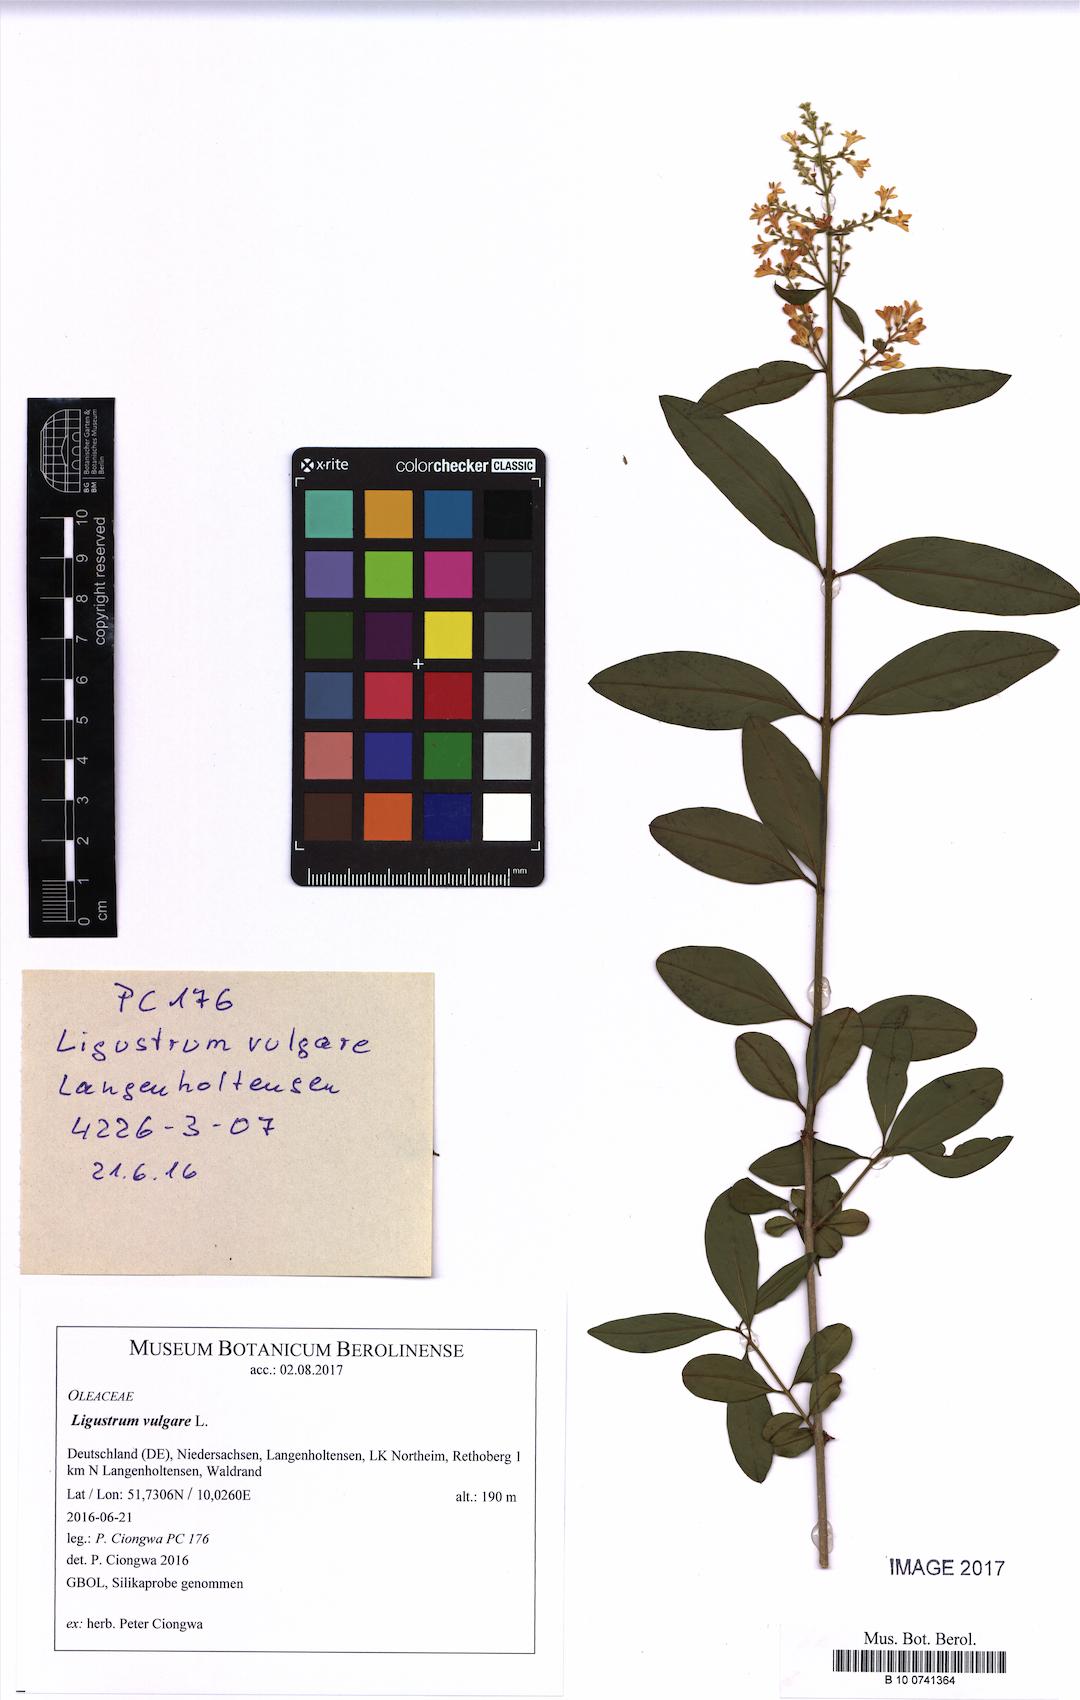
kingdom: Plantae
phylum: Tracheophyta
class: Magnoliopsida
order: Lamiales
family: Oleaceae
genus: Ligustrum
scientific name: Ligustrum vulgare
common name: Wild privet
